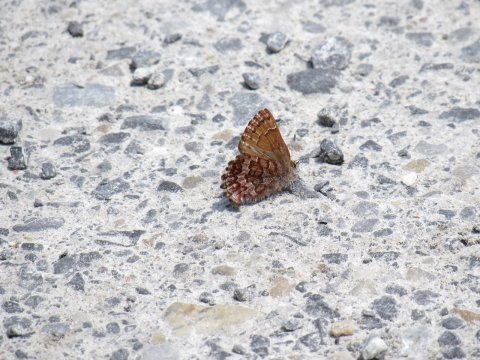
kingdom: Animalia
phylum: Arthropoda
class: Insecta
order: Lepidoptera
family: Lycaenidae
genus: Incisalia
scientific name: Incisalia niphon
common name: Eastern Pine Elfin
